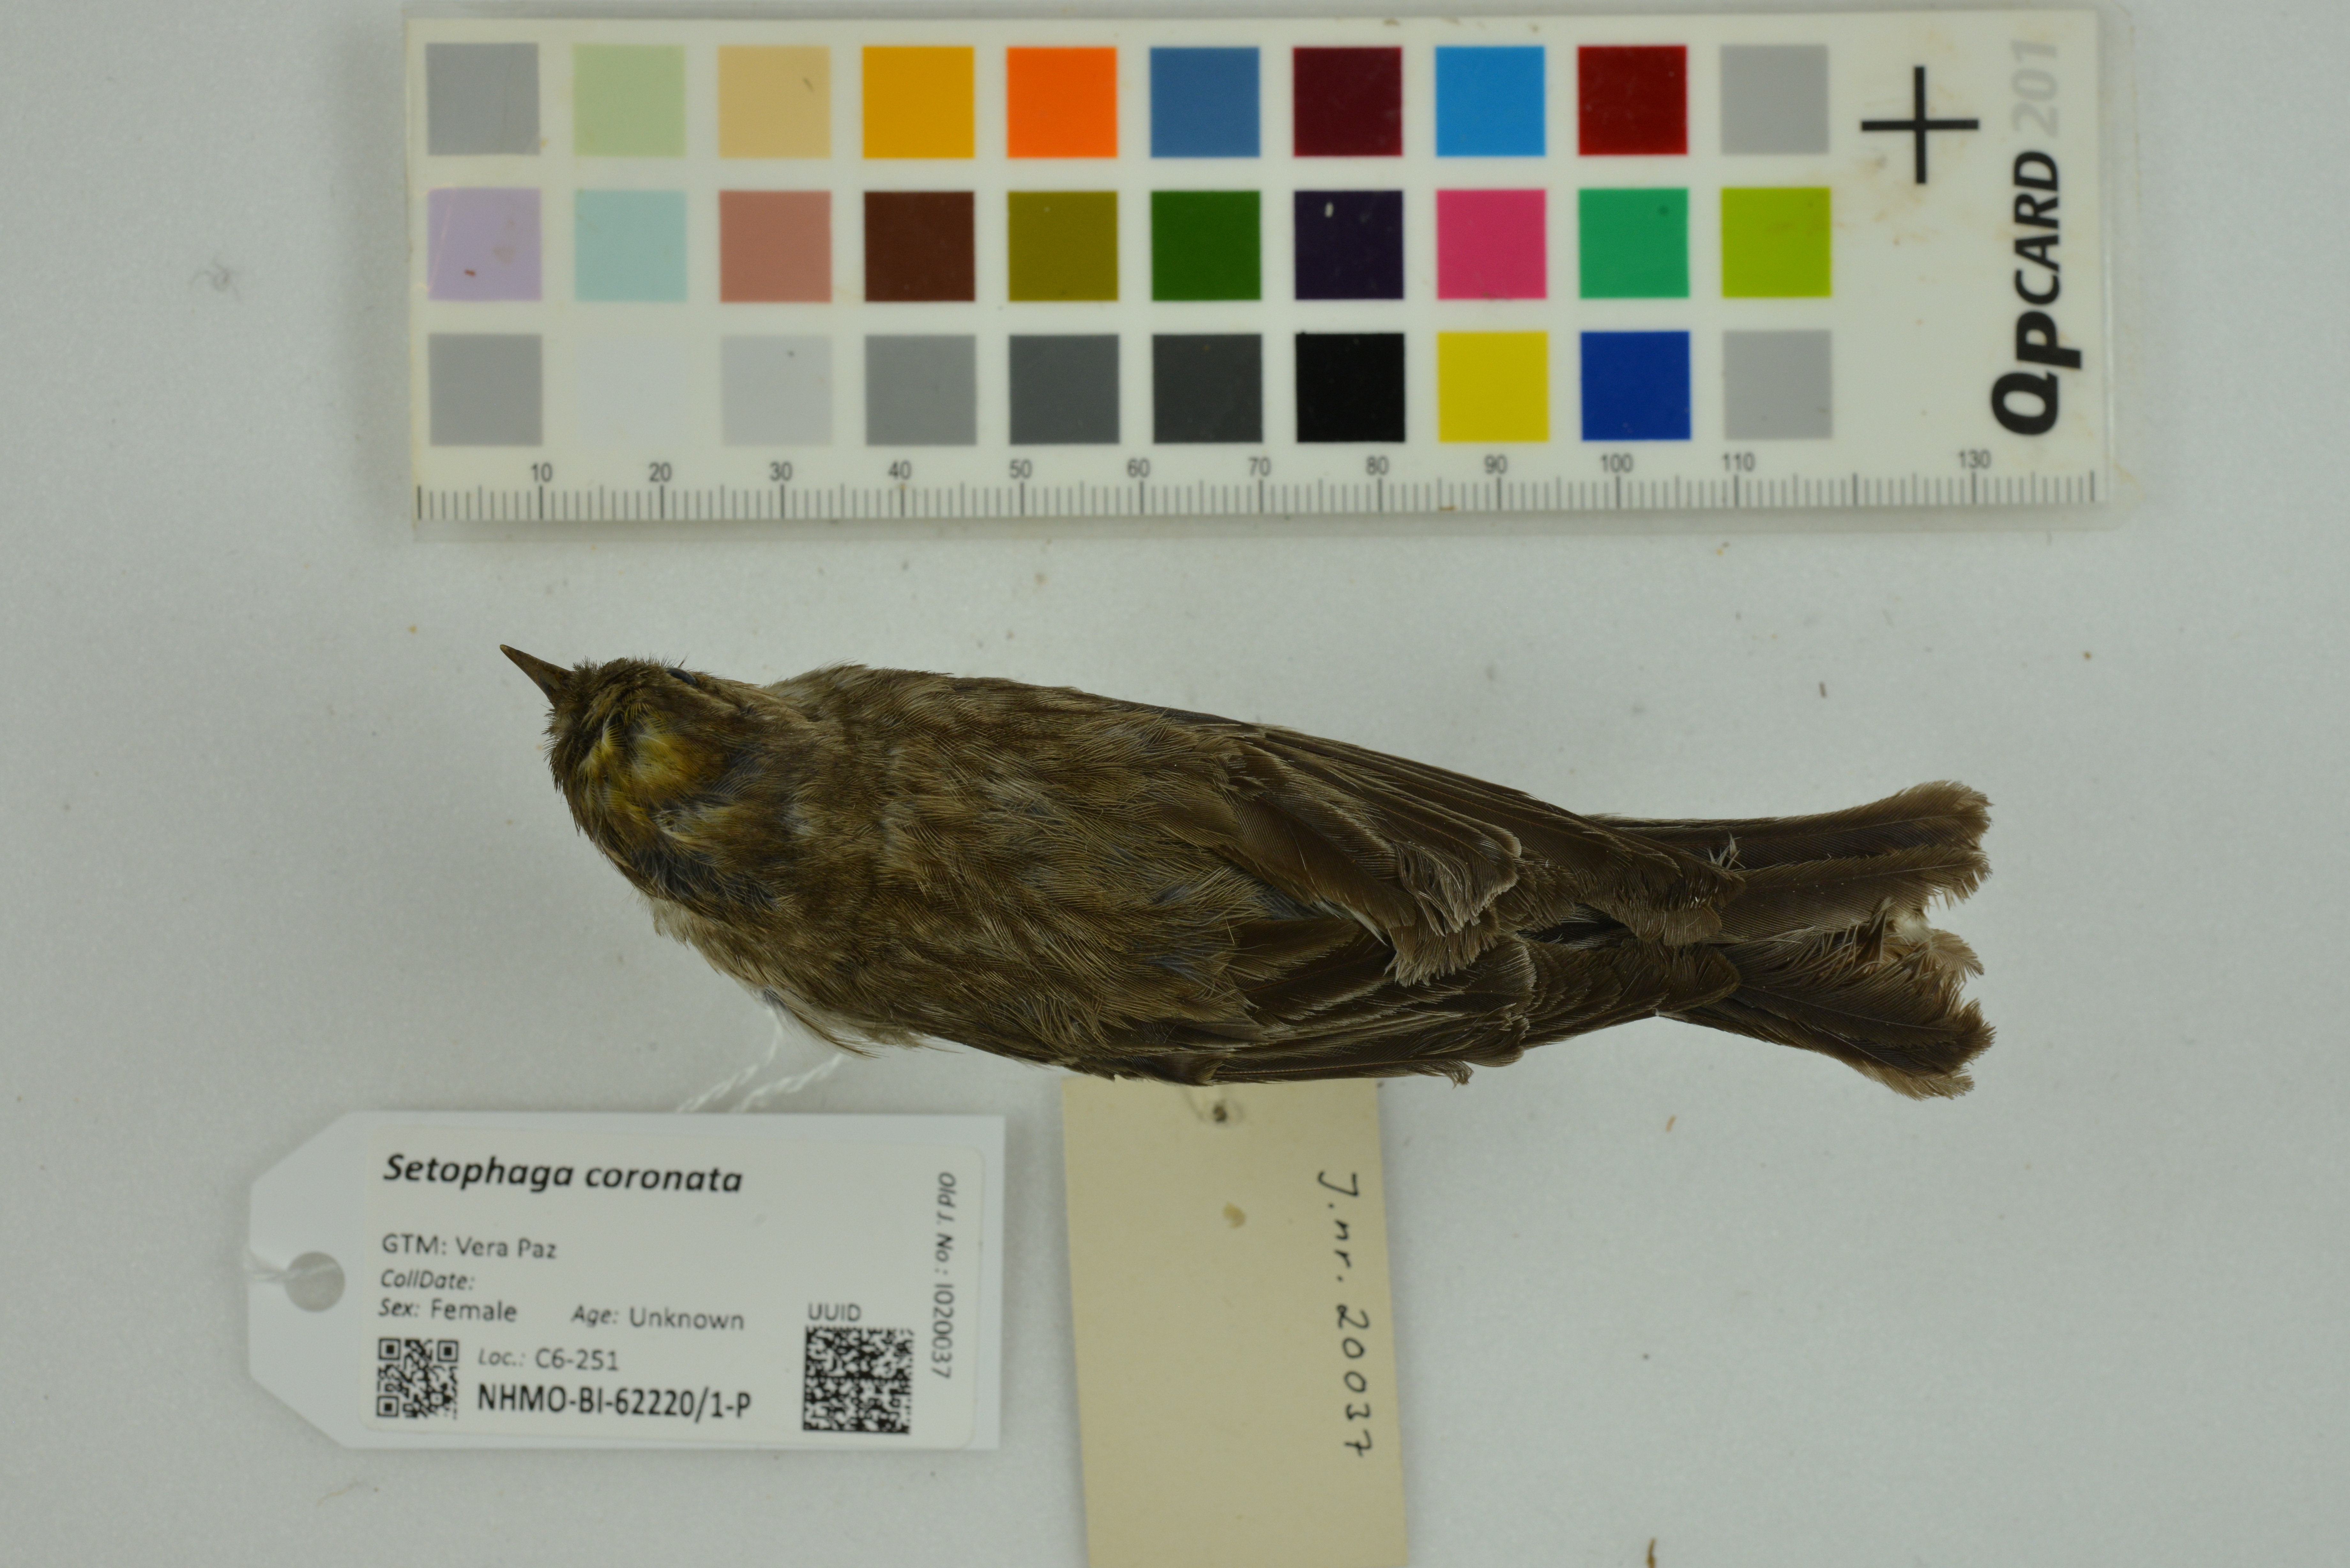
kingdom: Animalia
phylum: Chordata
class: Aves
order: Passeriformes
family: Parulidae
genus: Setophaga
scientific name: Setophaga coronata
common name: Myrtle warbler
